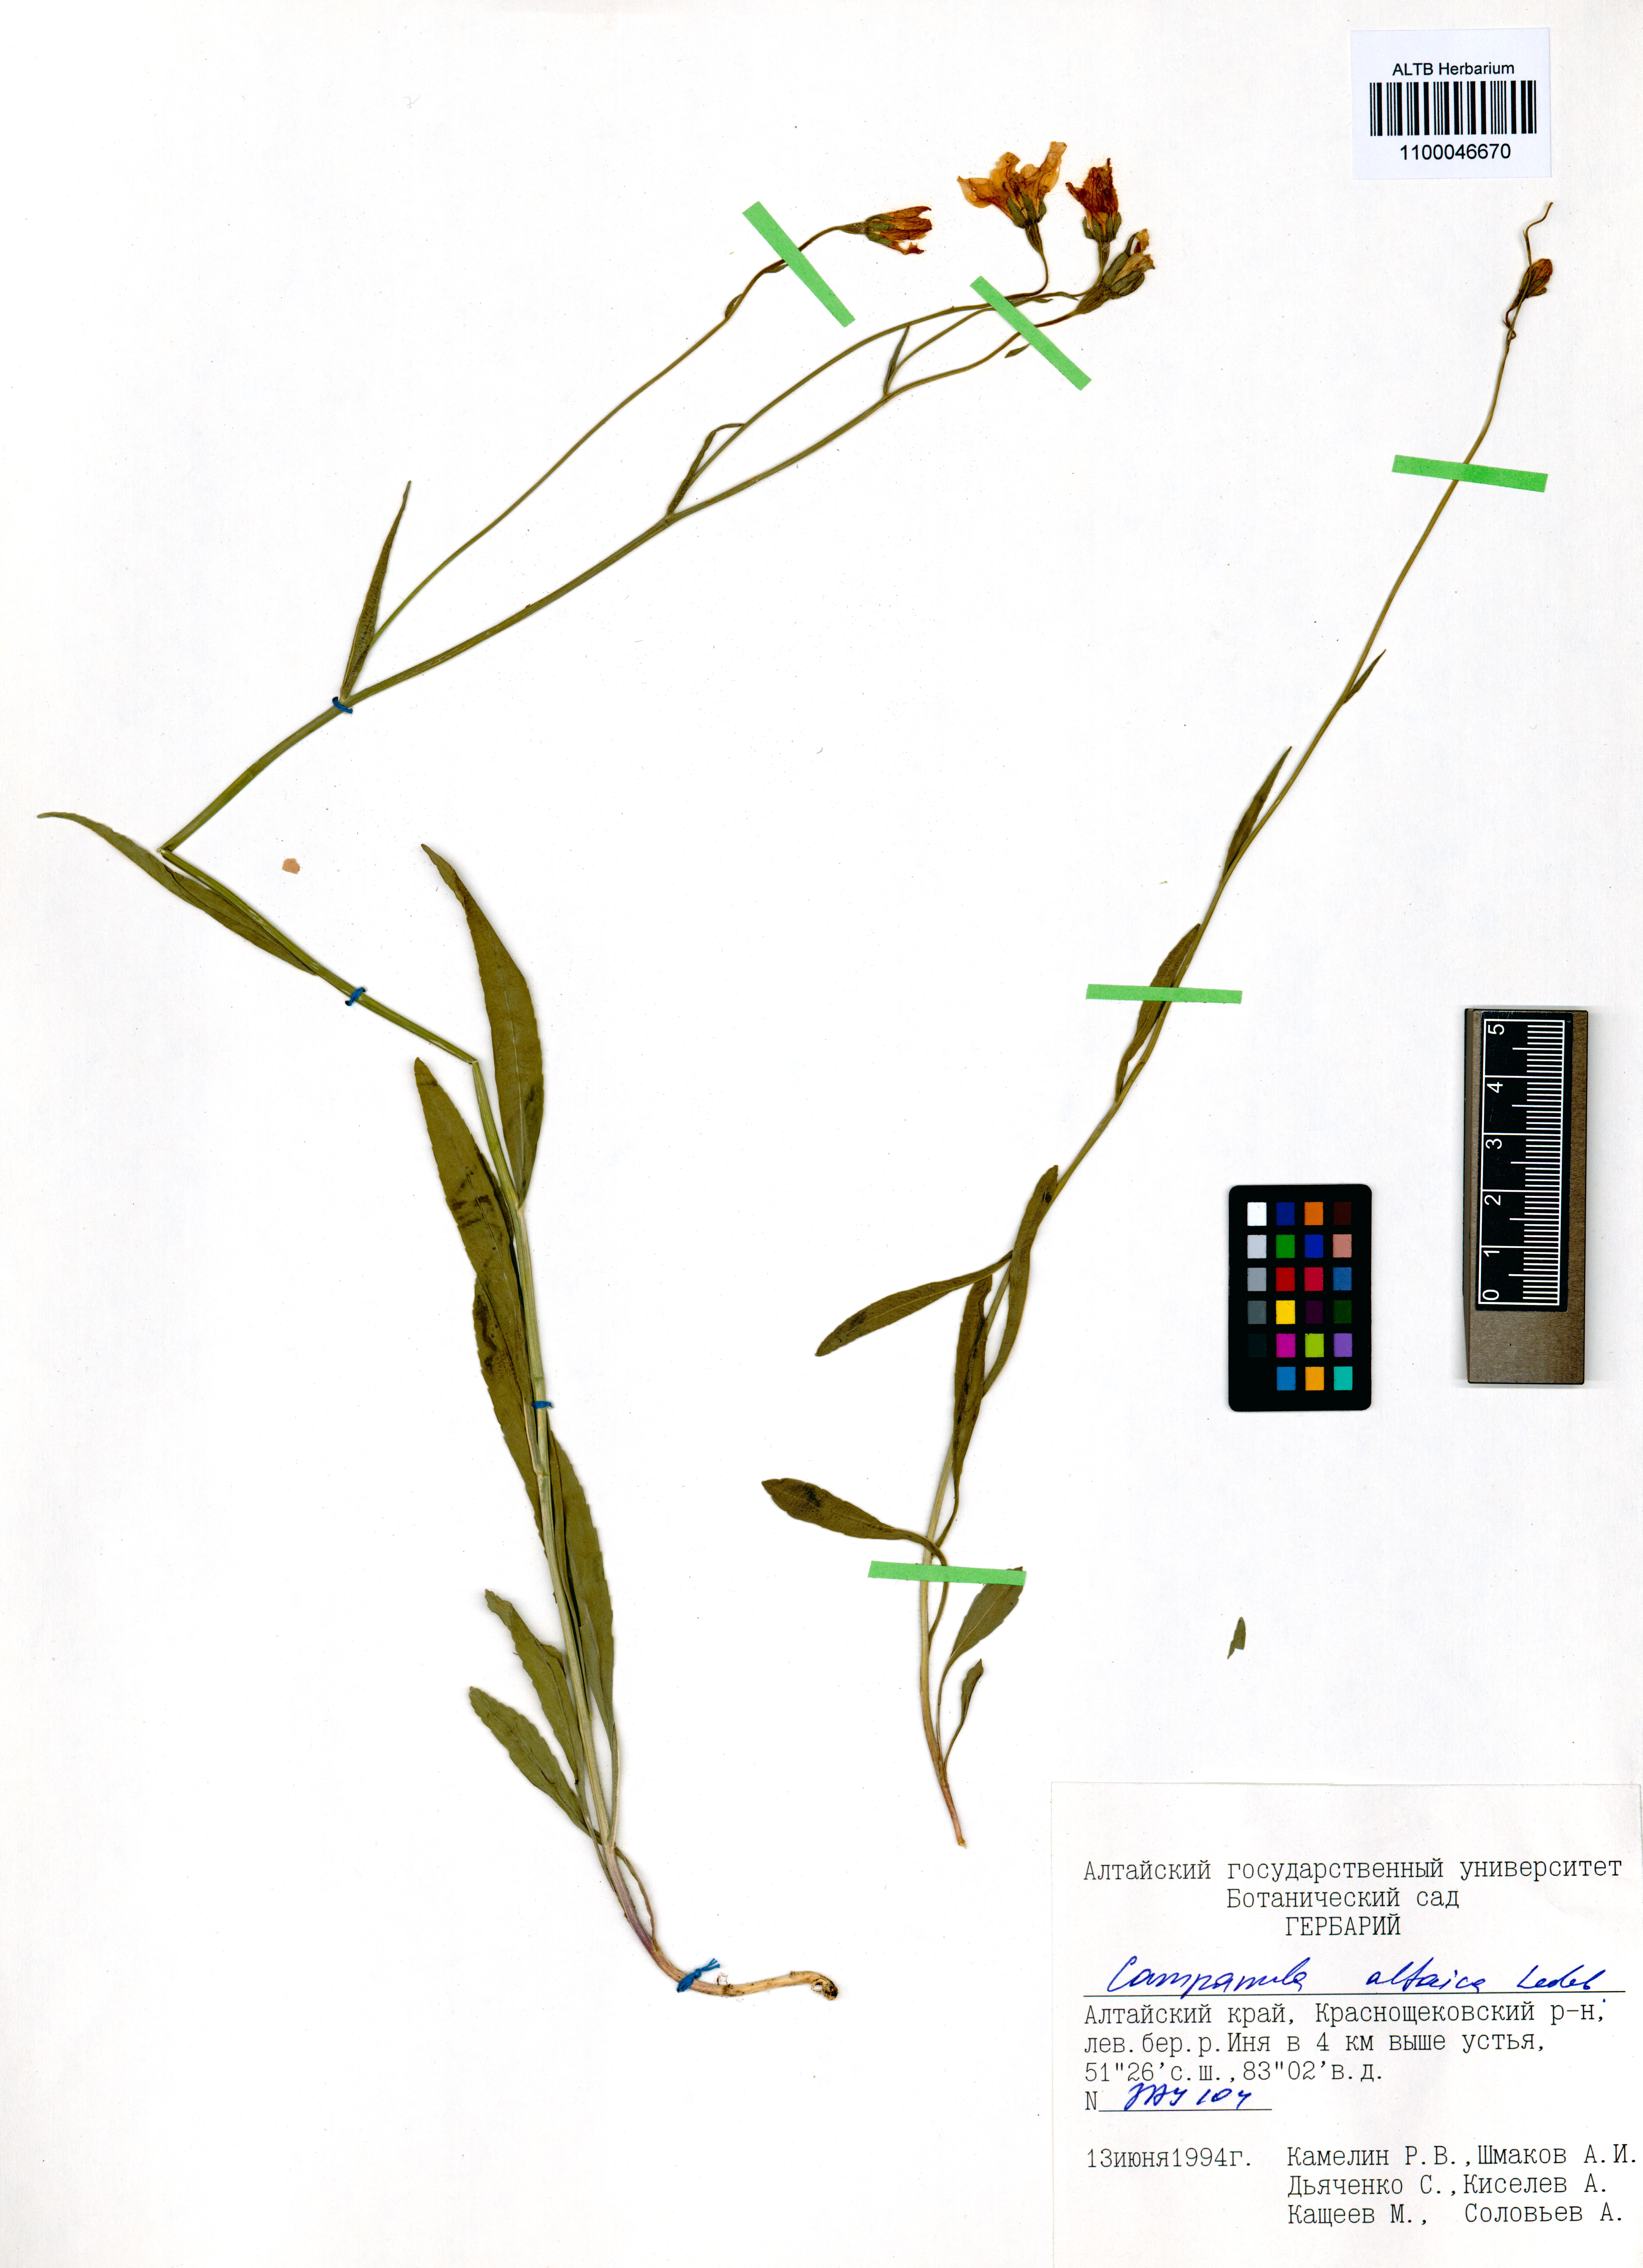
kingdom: Plantae
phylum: Tracheophyta
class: Magnoliopsida
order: Asterales
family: Campanulaceae
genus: Campanula
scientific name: Campanula stevenii
